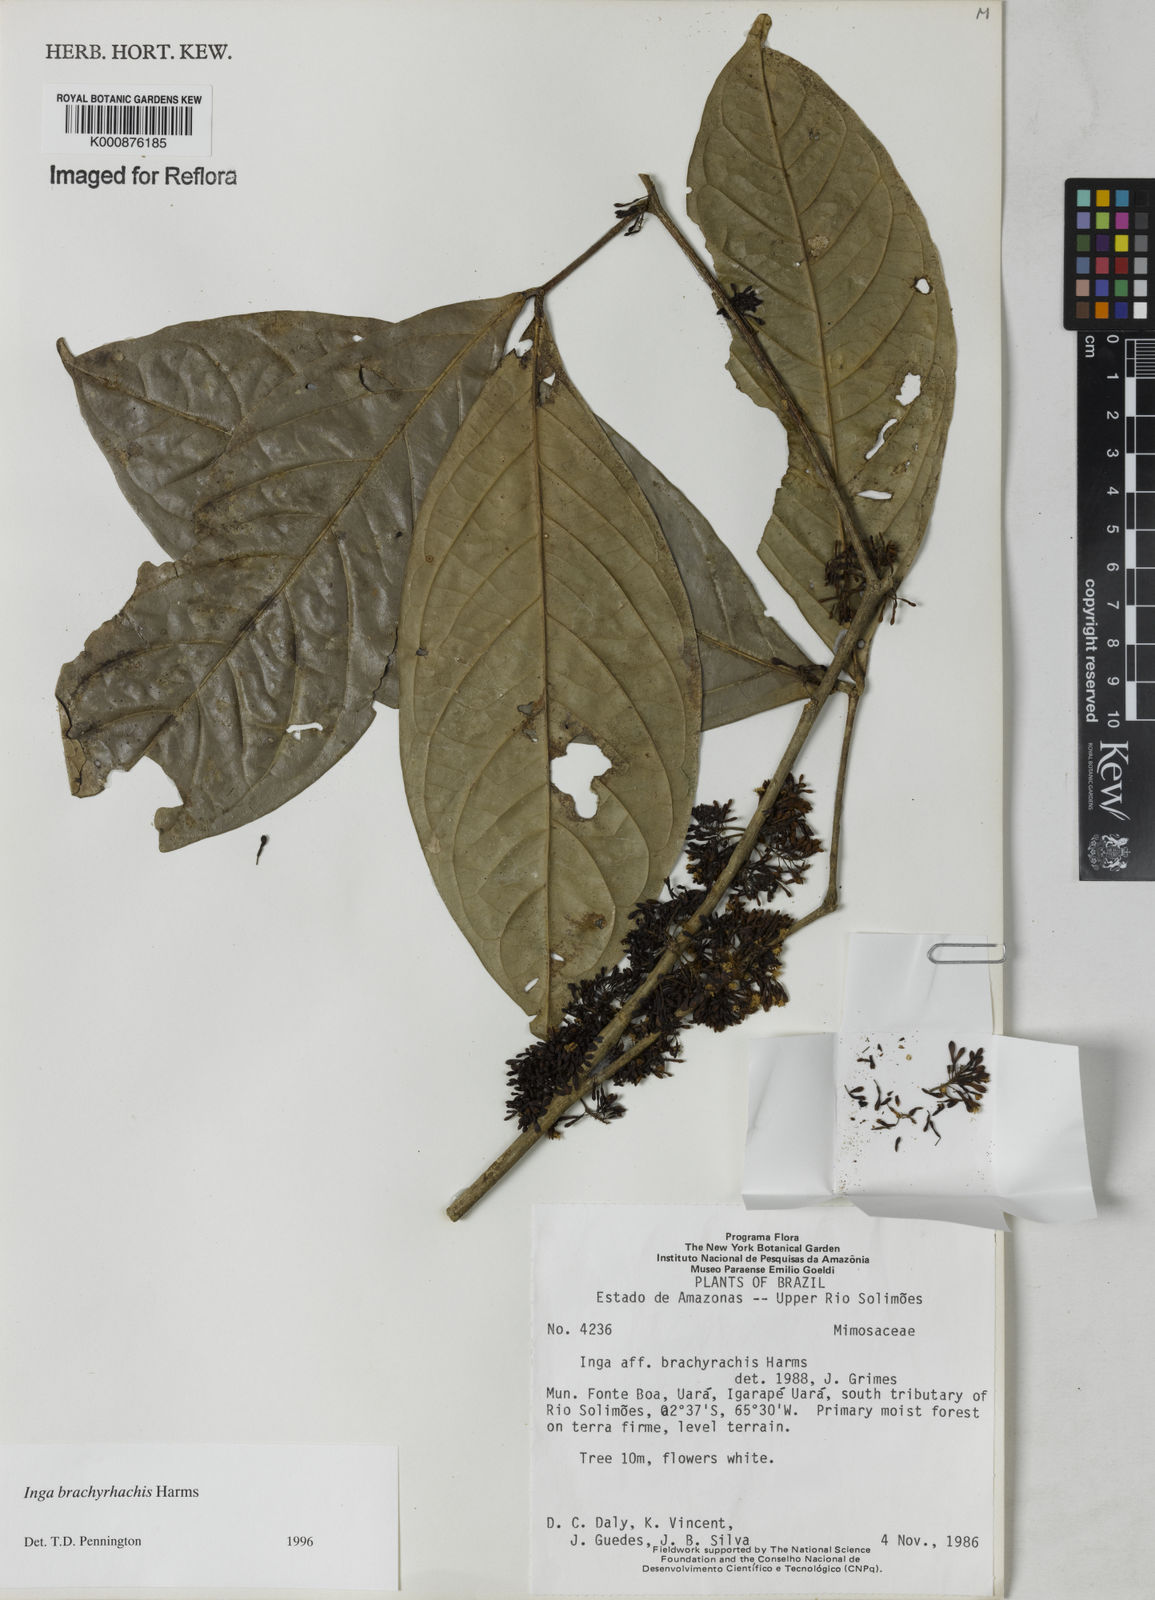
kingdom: Plantae
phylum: Tracheophyta
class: Magnoliopsida
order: Fabales
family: Fabaceae
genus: Inga
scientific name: Inga brachyrhachis
